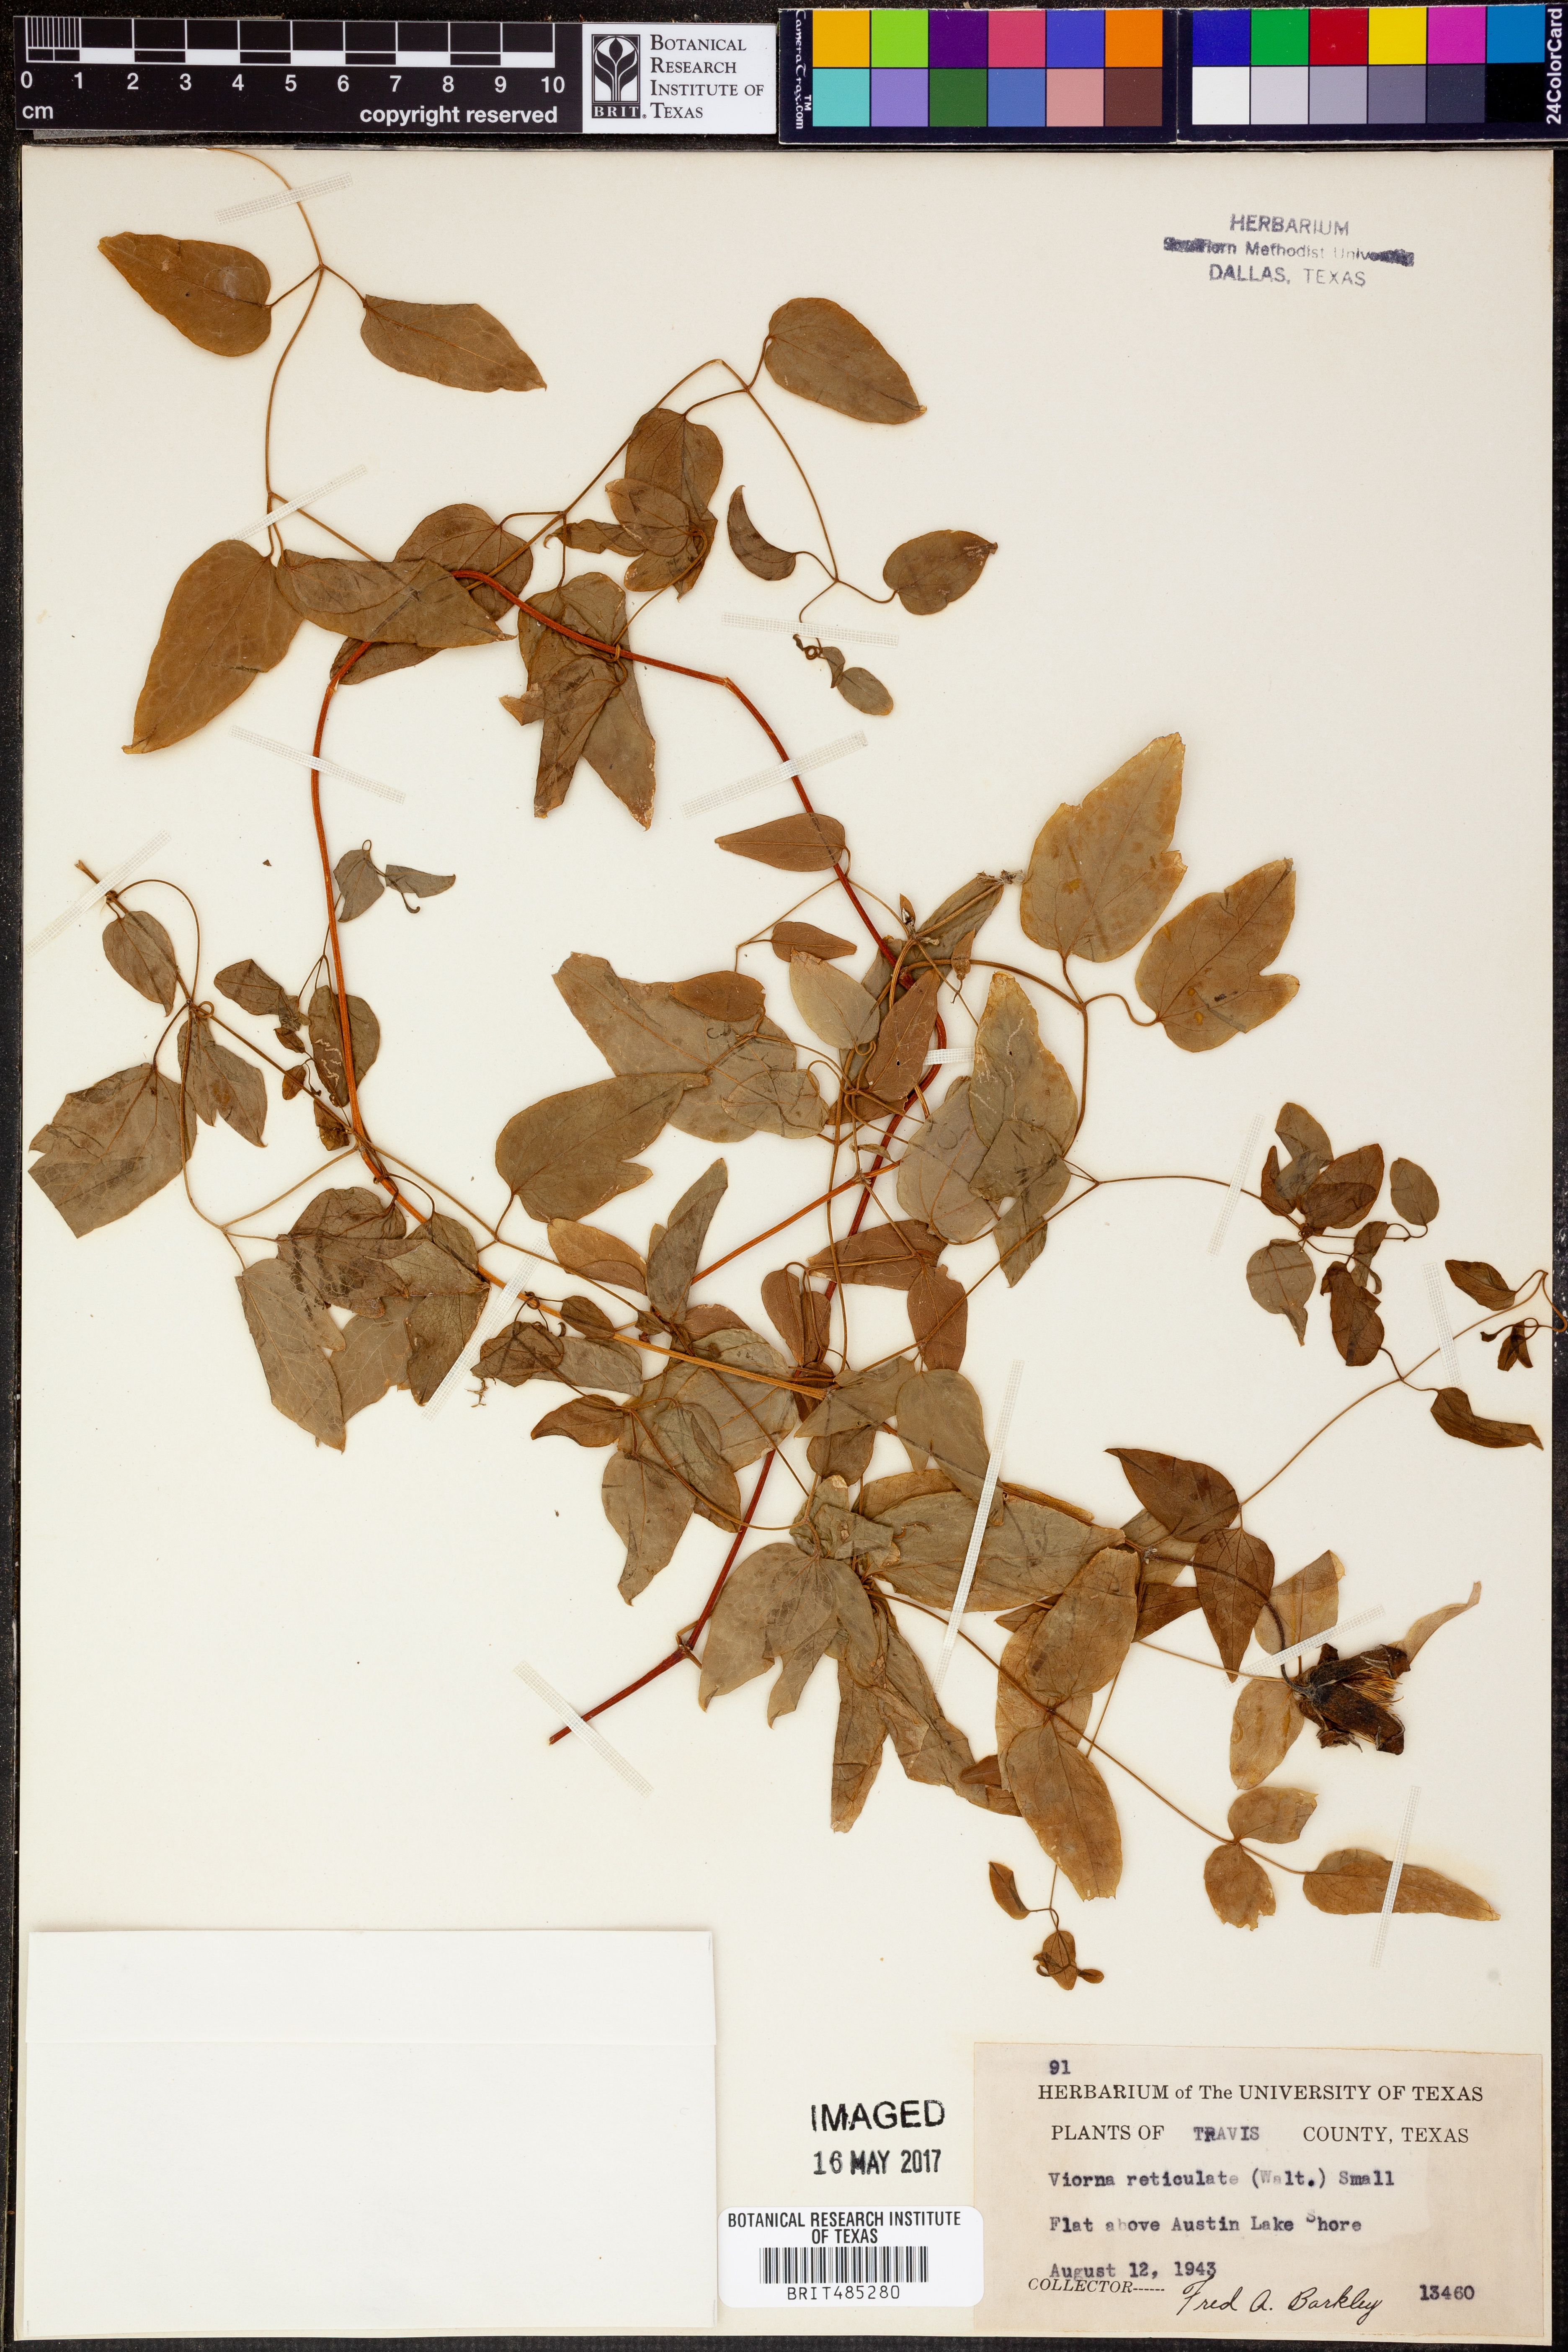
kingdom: Plantae
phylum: Tracheophyta
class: Magnoliopsida
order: Ranunculales
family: Ranunculaceae
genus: Clematis
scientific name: Clematis reticulata
